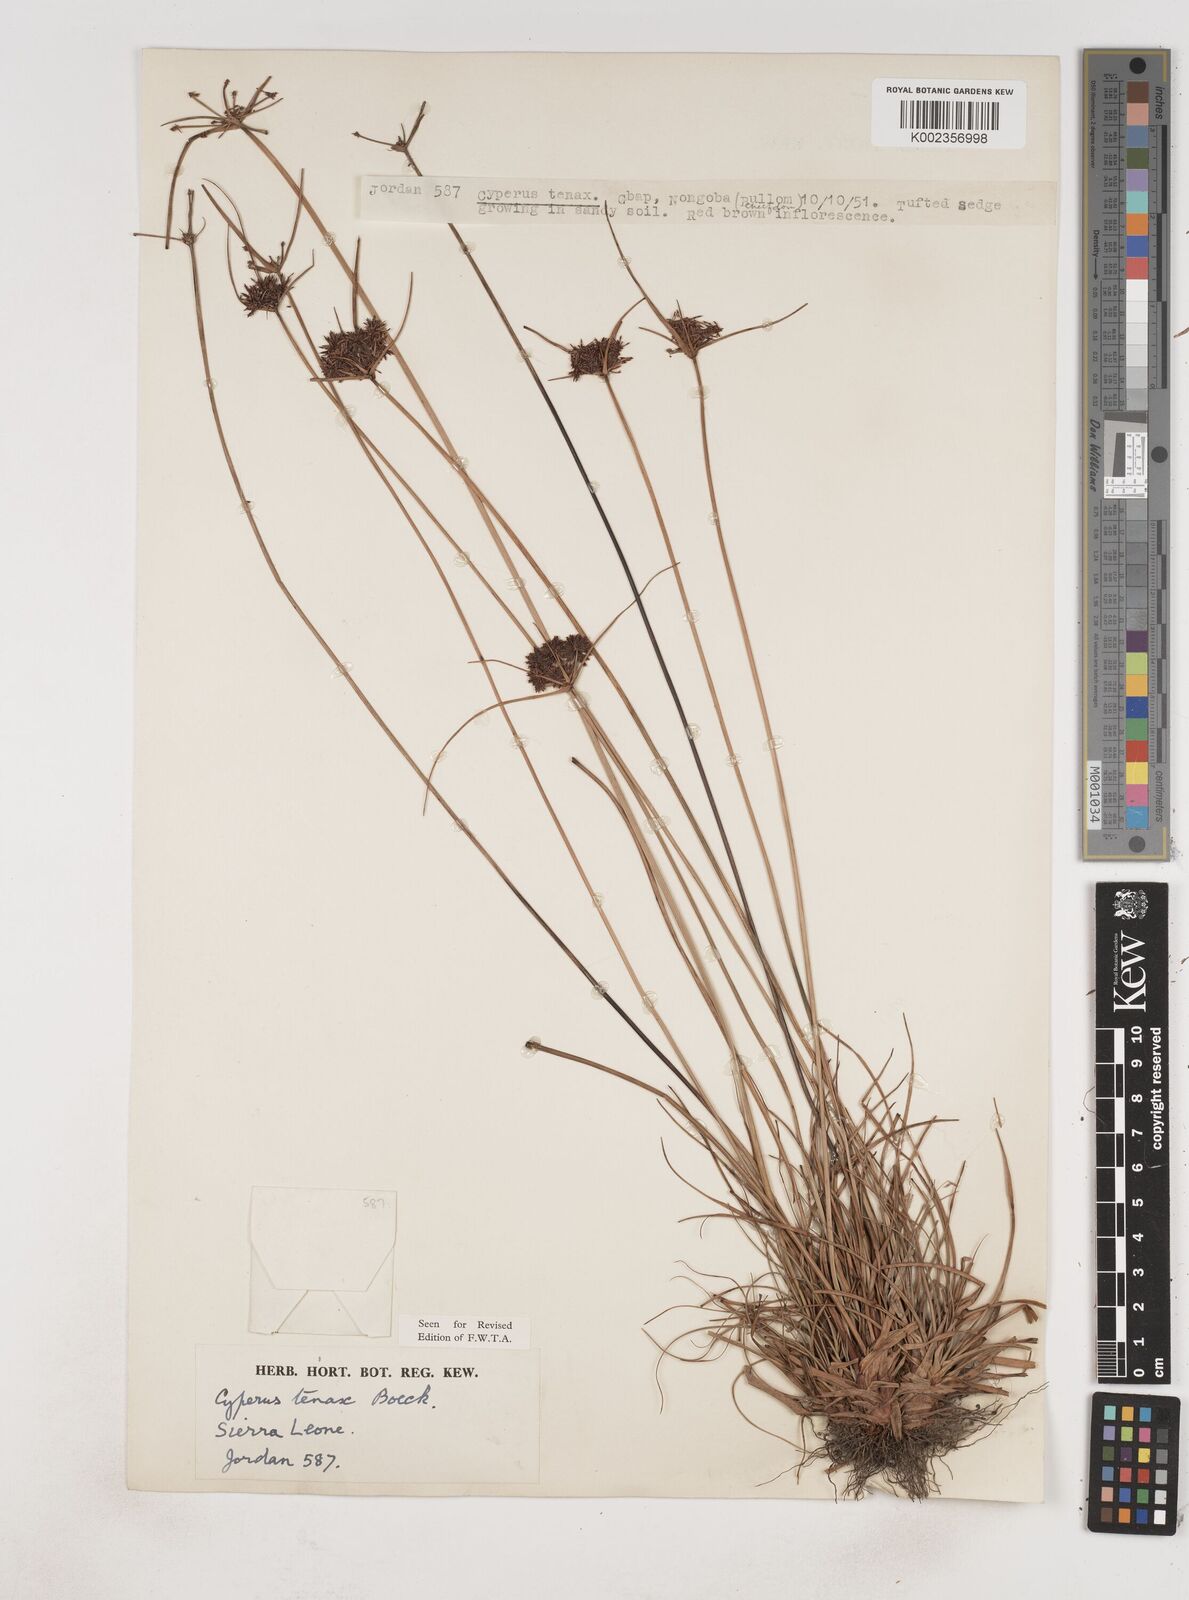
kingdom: Plantae
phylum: Tracheophyta
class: Liliopsida
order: Poales
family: Cyperaceae
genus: Cyperus
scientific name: Cyperus tenax
